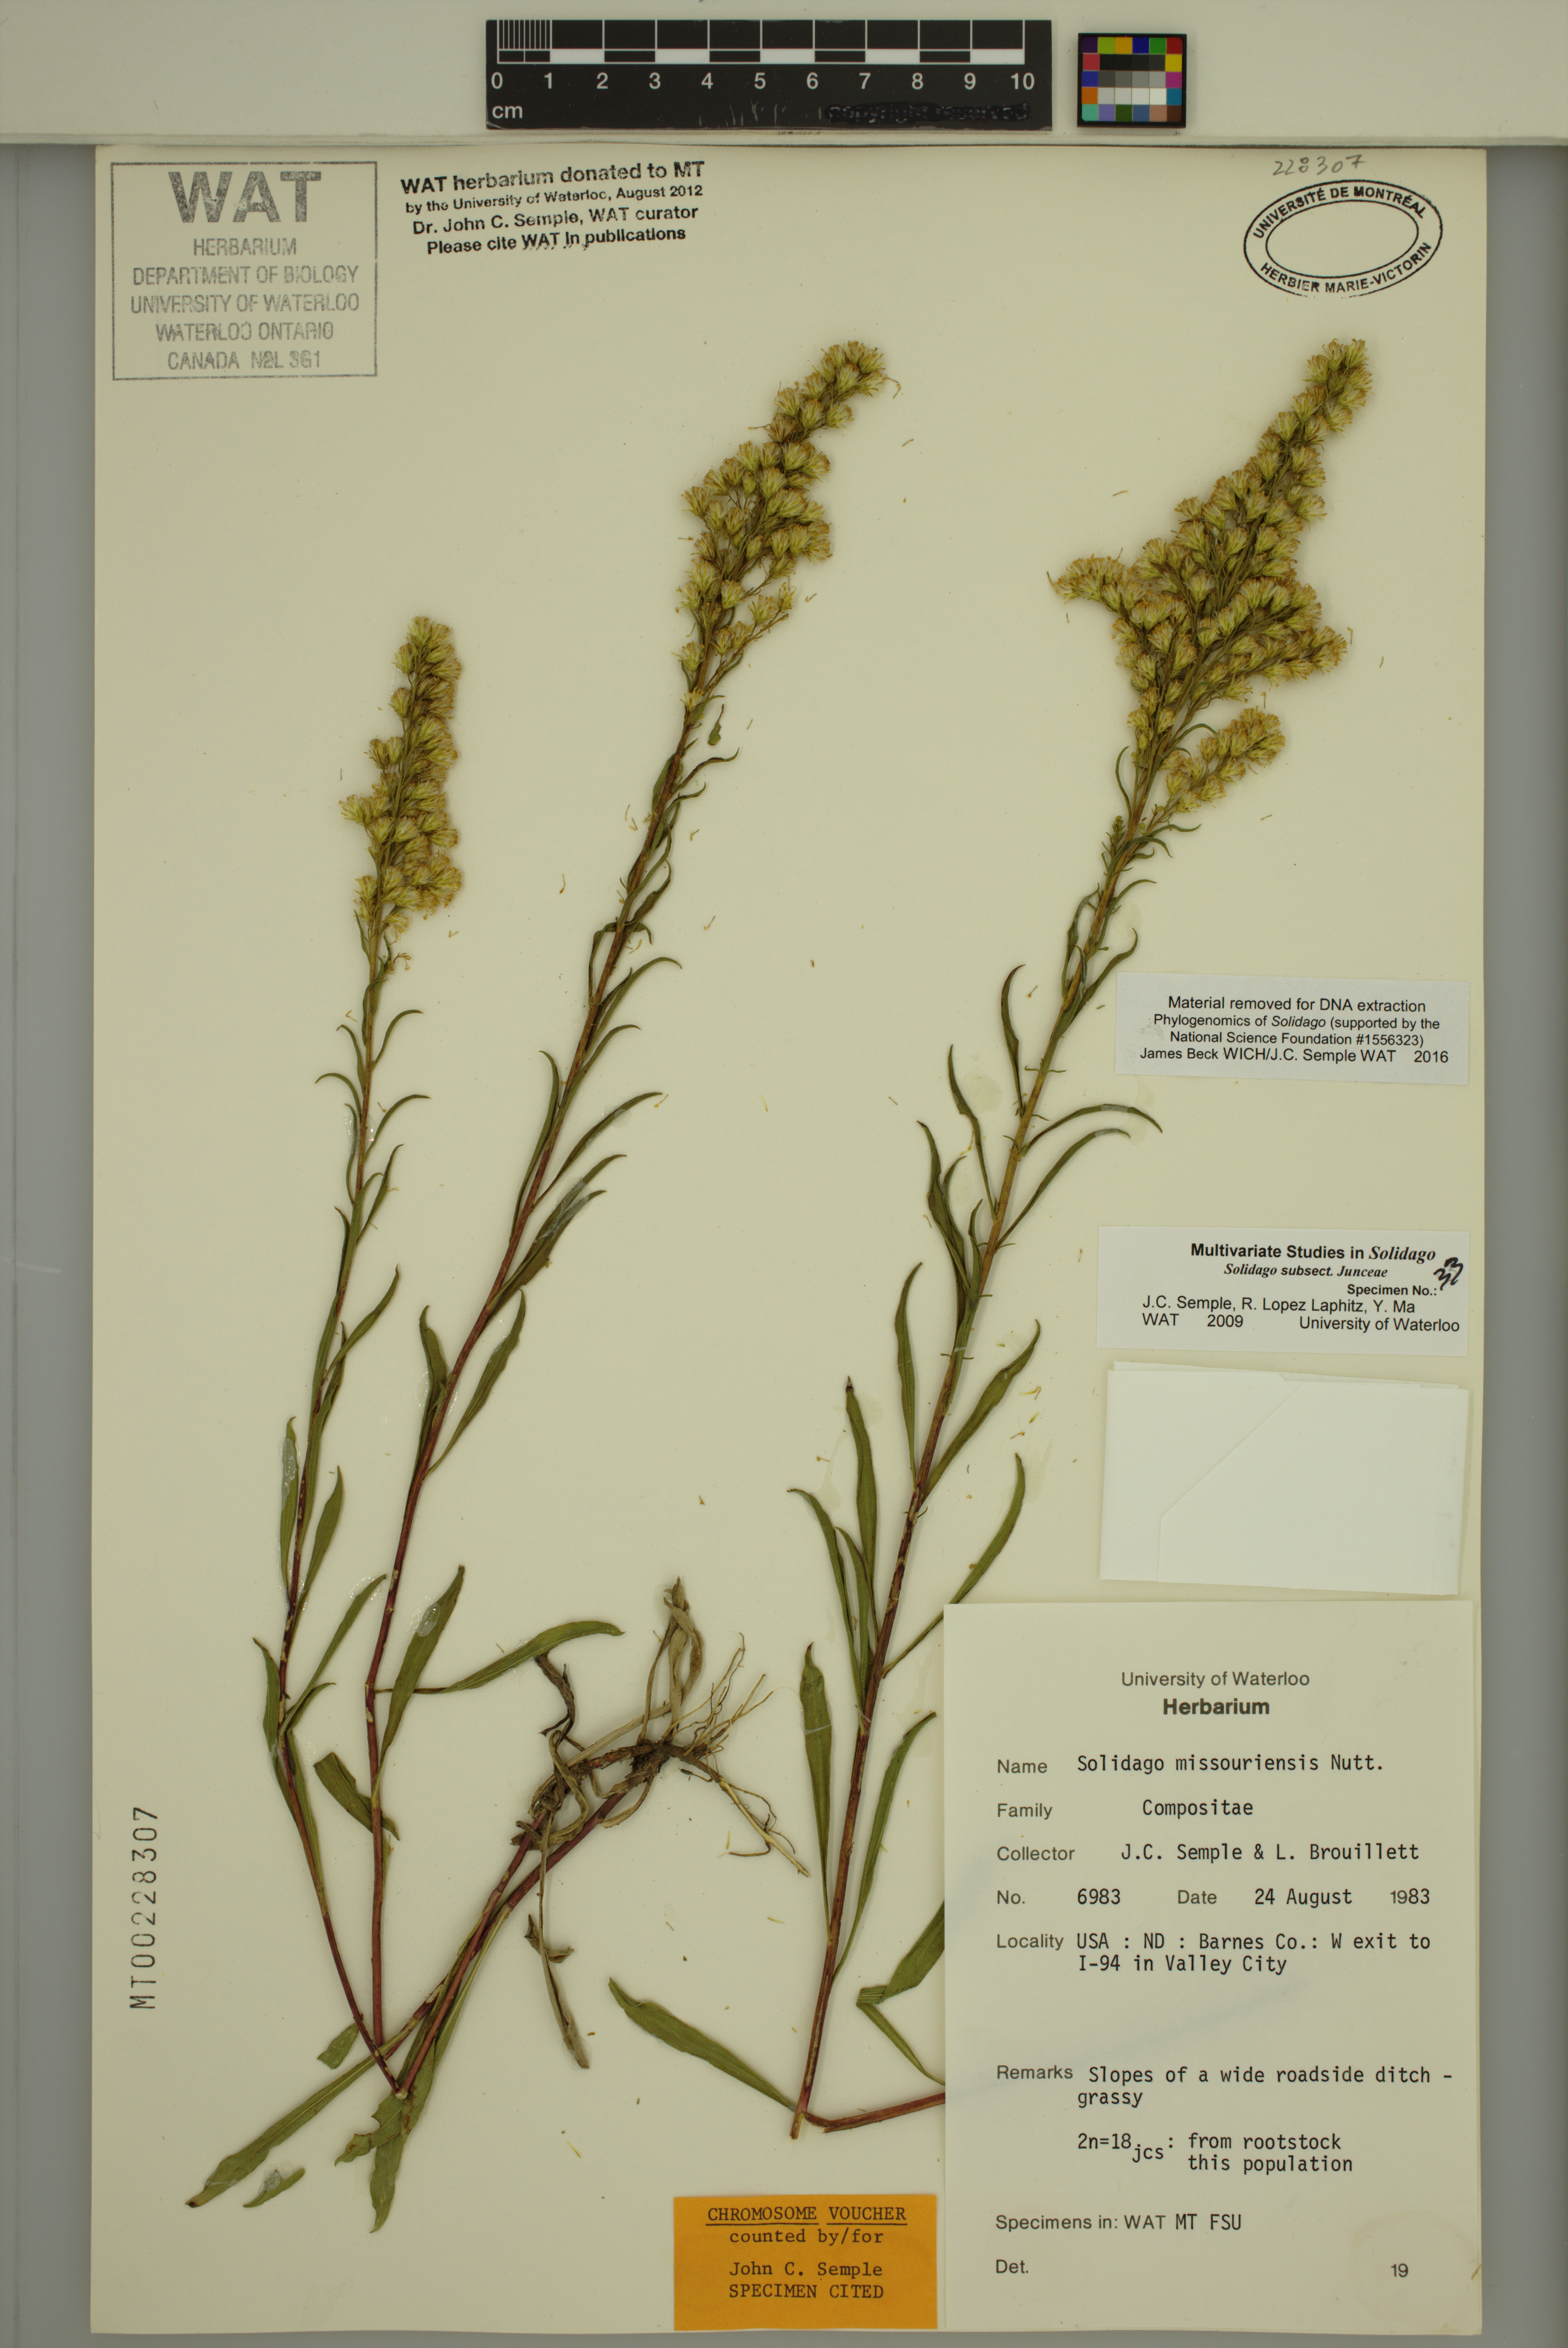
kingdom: Plantae
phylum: Tracheophyta
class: Magnoliopsida
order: Asterales
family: Asteraceae
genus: Solidago
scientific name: Solidago missouriensis
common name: Prairie goldenrod
